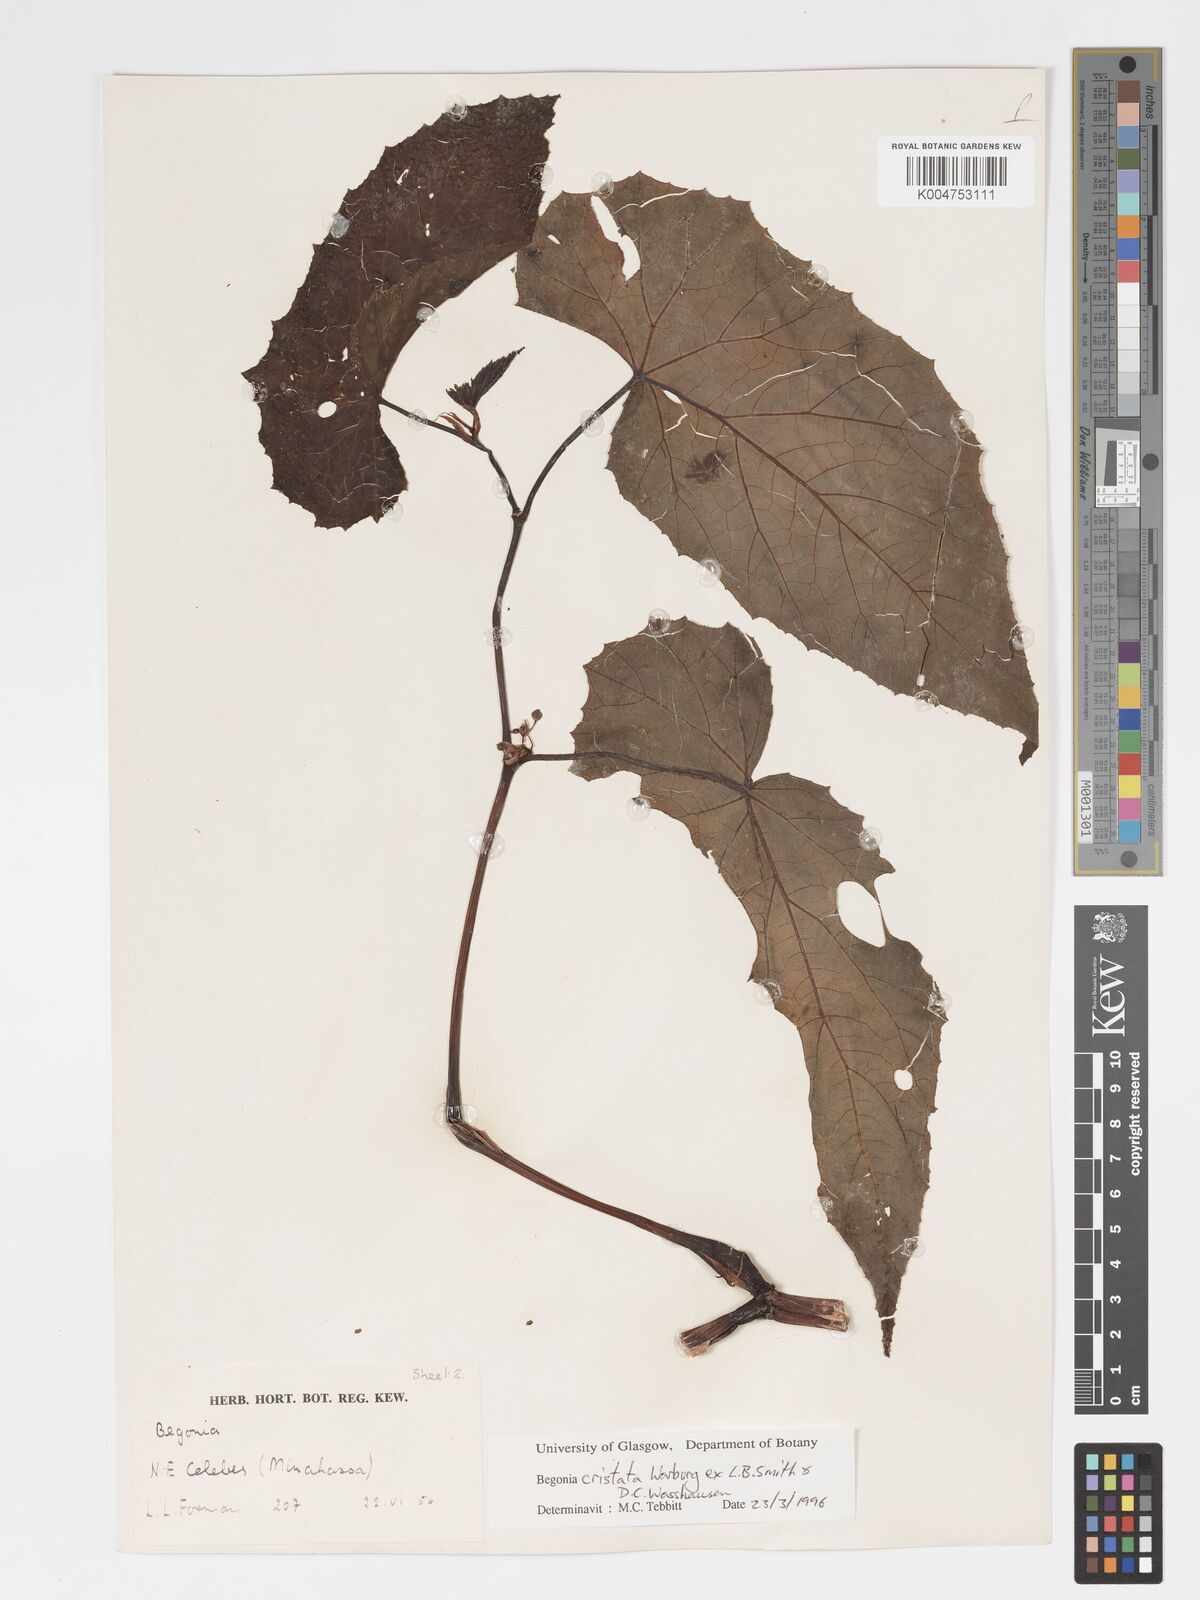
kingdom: Plantae
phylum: Tracheophyta
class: Magnoliopsida
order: Cucurbitales
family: Begoniaceae
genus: Begonia
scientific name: Begonia
